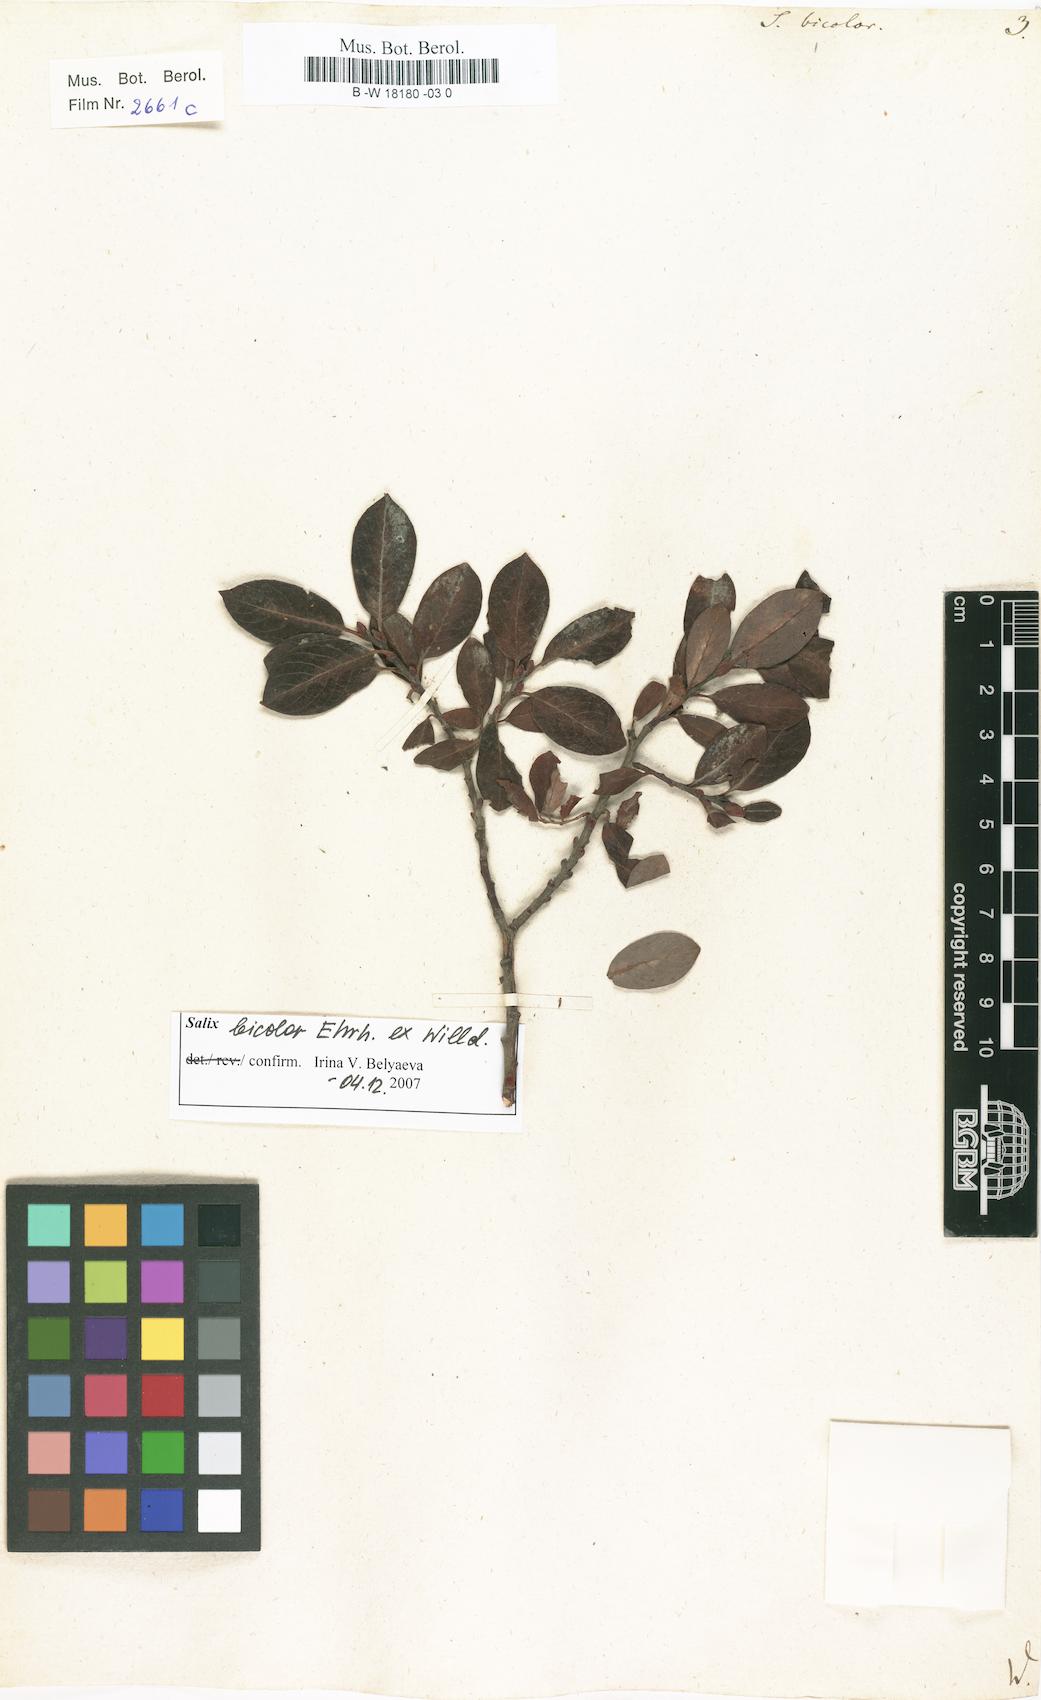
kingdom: Plantae
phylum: Tracheophyta
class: Magnoliopsida
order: Malpighiales
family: Salicaceae
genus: Salix
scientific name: Salix bicolor
